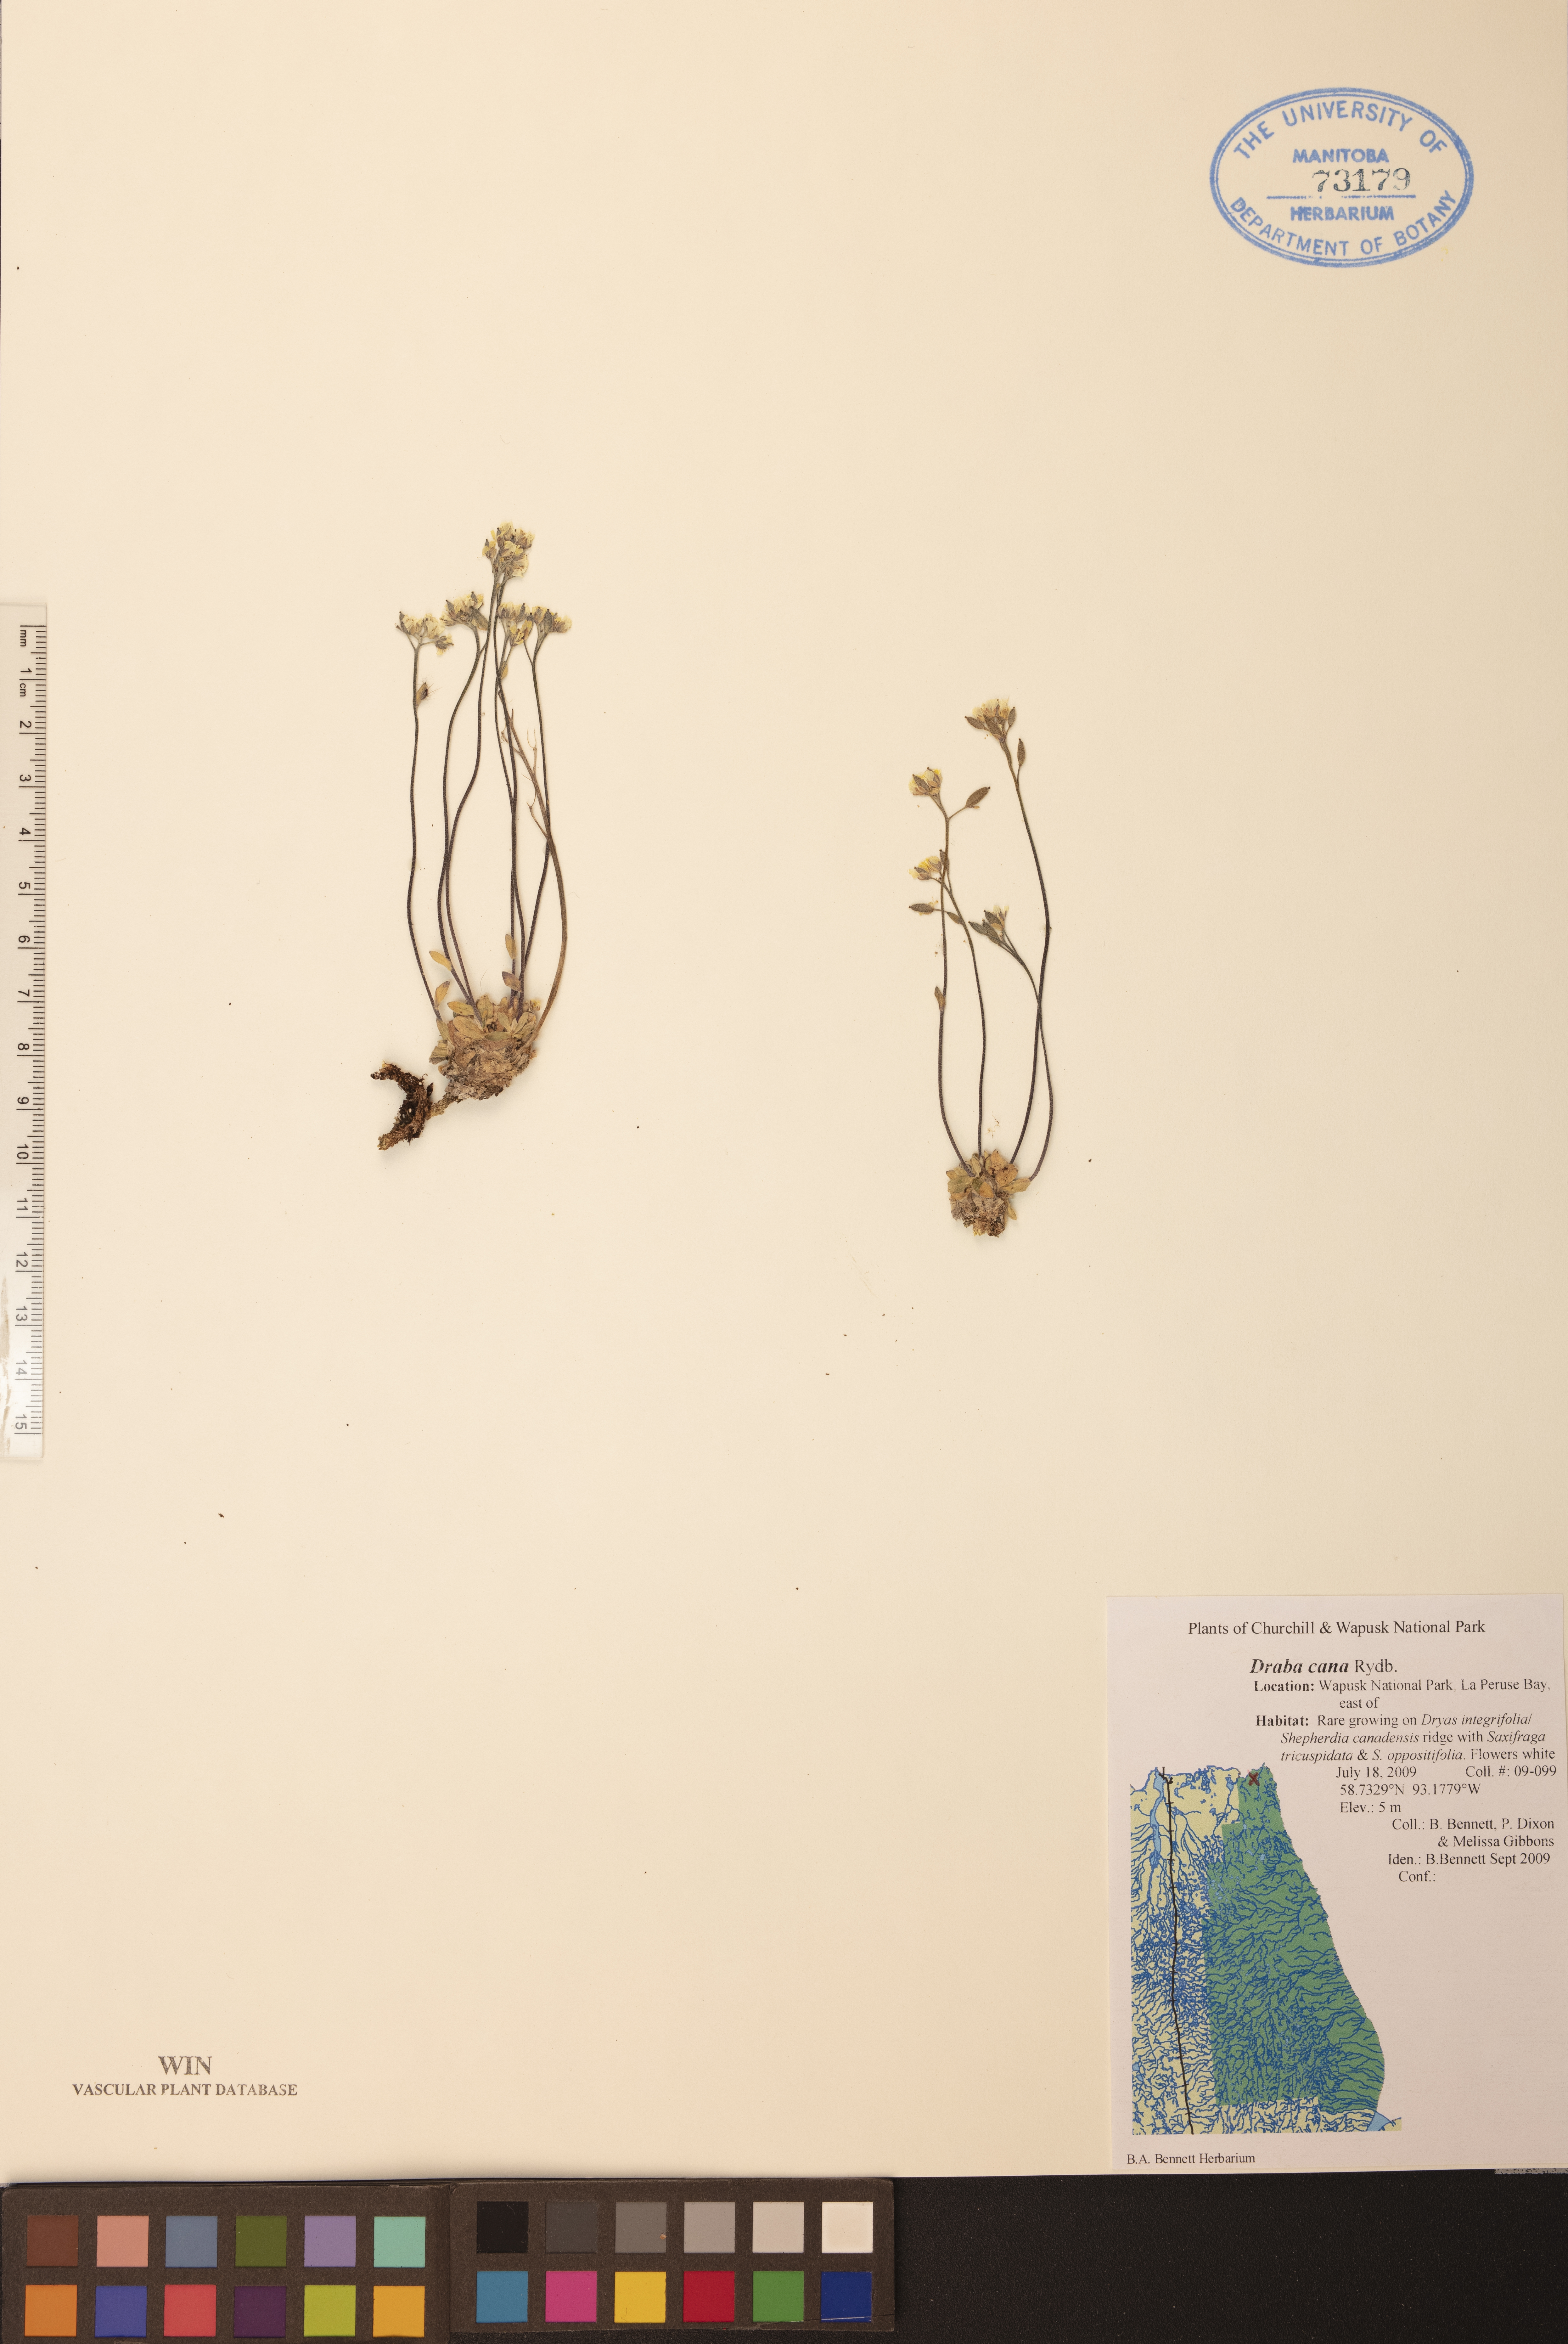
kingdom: Plantae
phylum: Tracheophyta
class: Magnoliopsida
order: Brassicales
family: Brassicaceae
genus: Draba
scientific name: Draba cana
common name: Hoary draba
